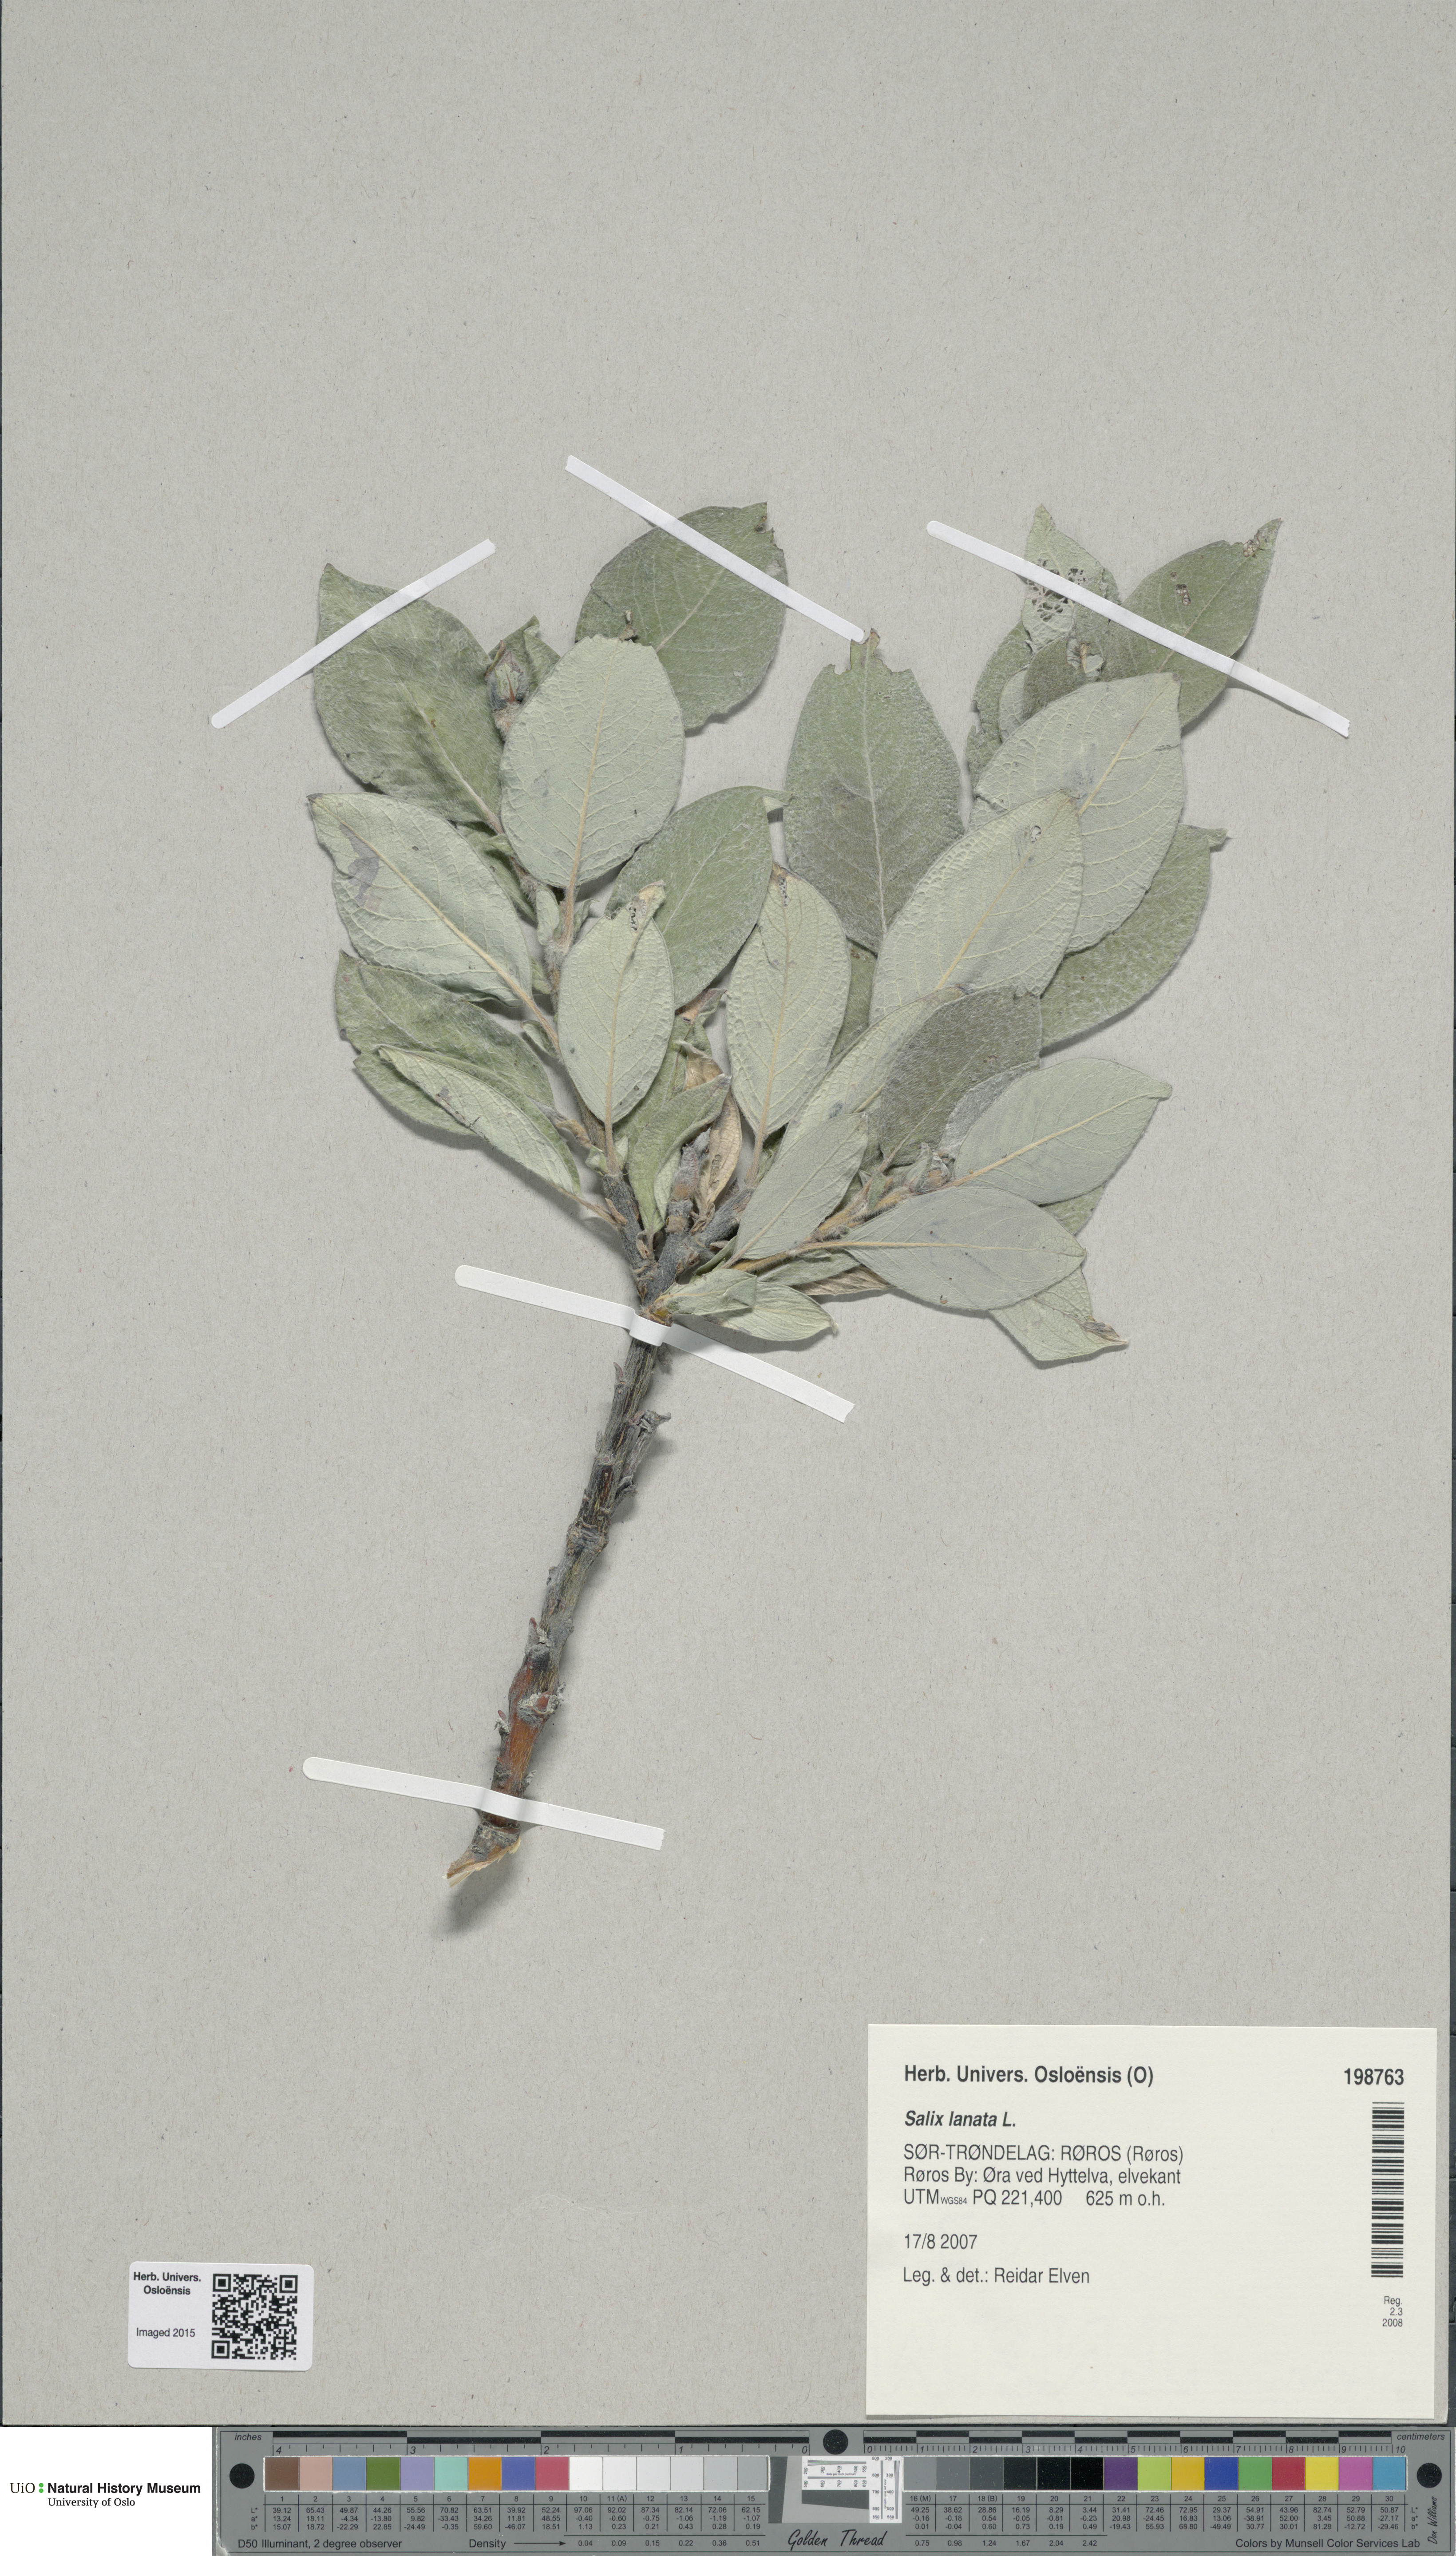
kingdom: Plantae
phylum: Tracheophyta
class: Magnoliopsida
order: Malpighiales
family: Salicaceae
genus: Salix
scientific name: Salix lanata
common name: Woolly willow
